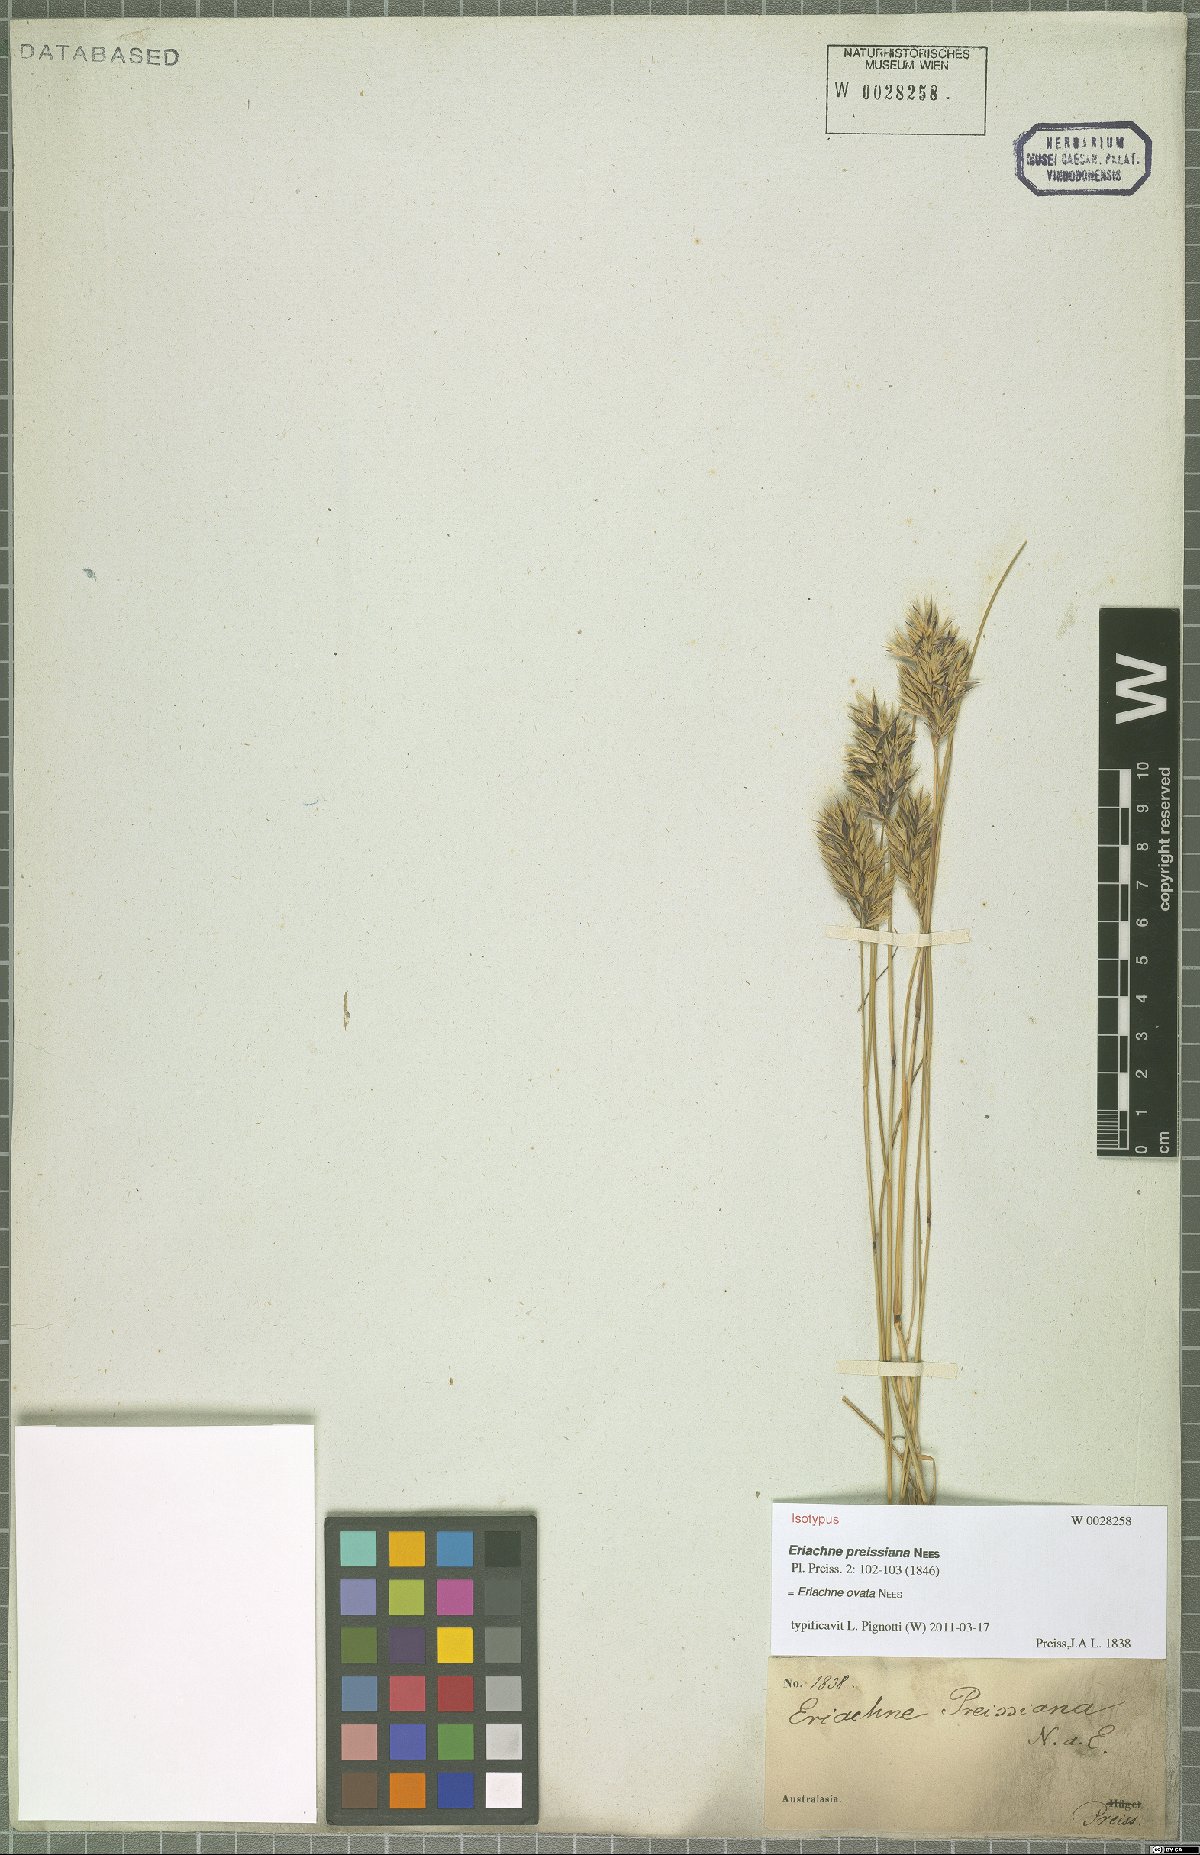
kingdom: Plantae
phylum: Tracheophyta
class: Liliopsida
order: Poales
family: Poaceae
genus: Eriachne
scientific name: Eriachne ovata
